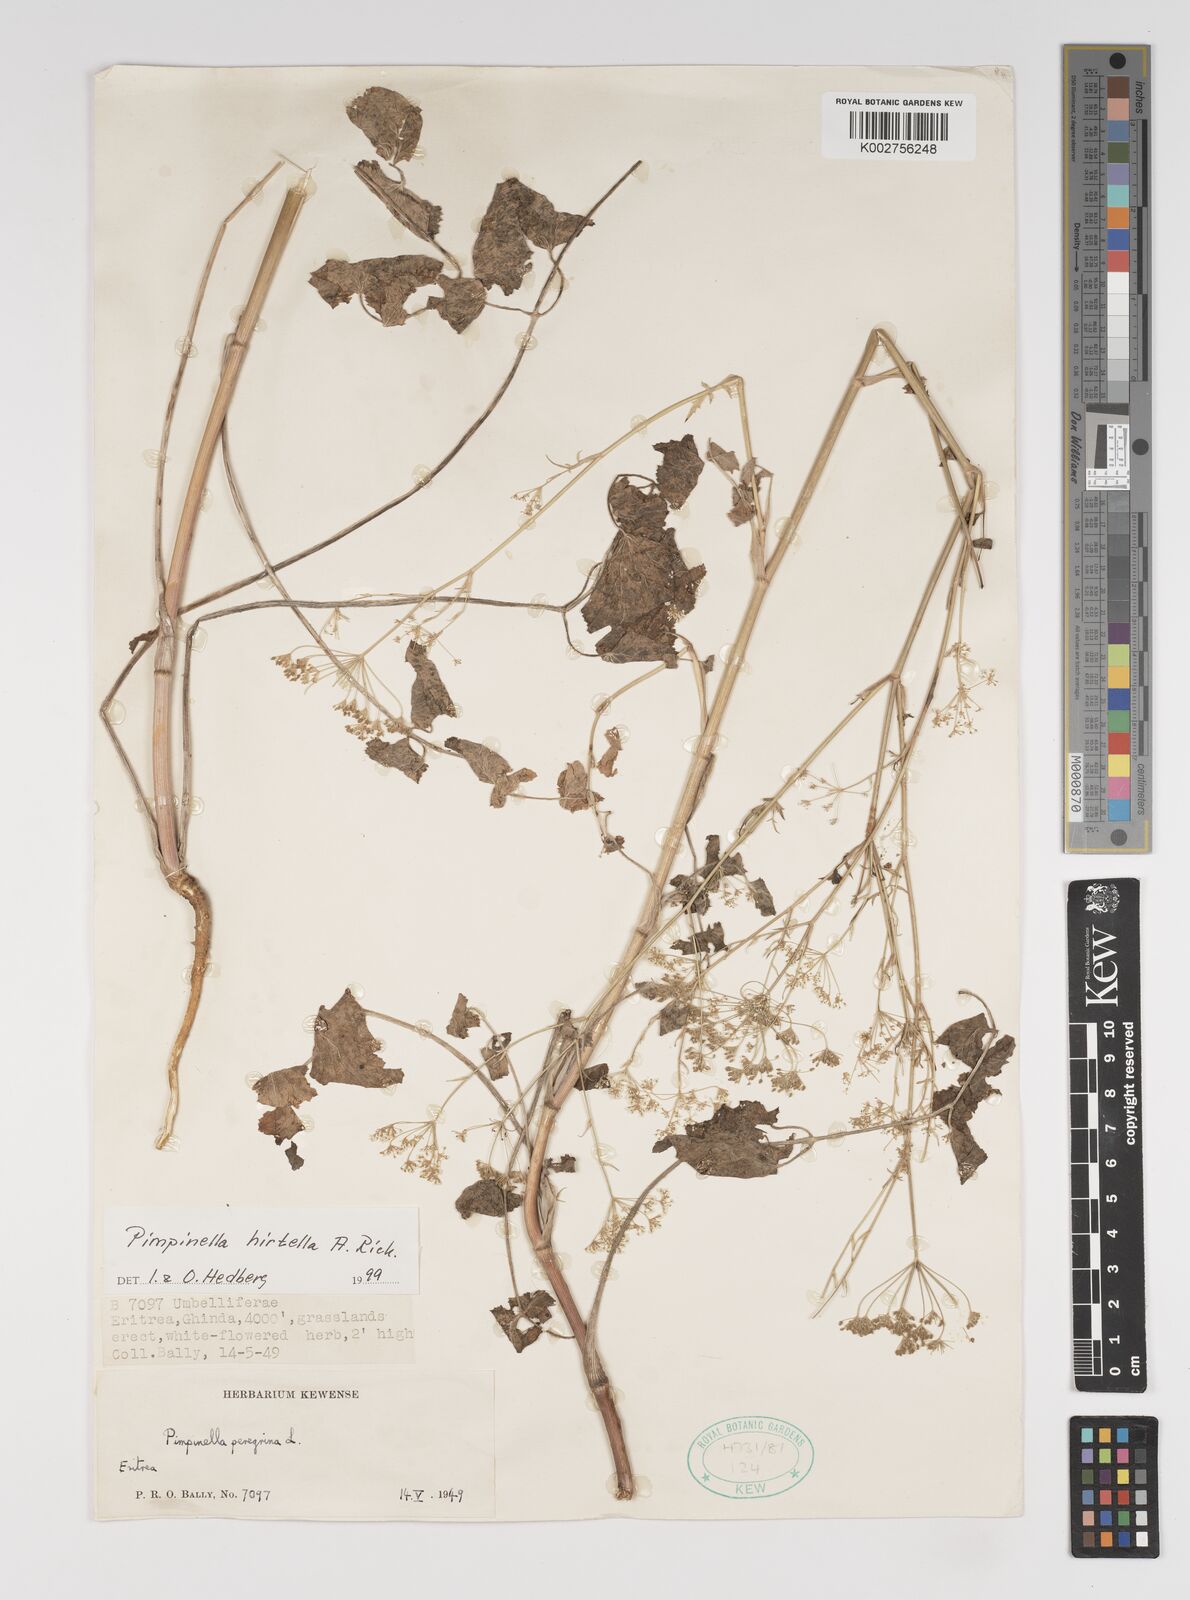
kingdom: Plantae
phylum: Tracheophyta
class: Magnoliopsida
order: Apiales
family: Apiaceae
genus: Pimpinella
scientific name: Pimpinella hirtella
